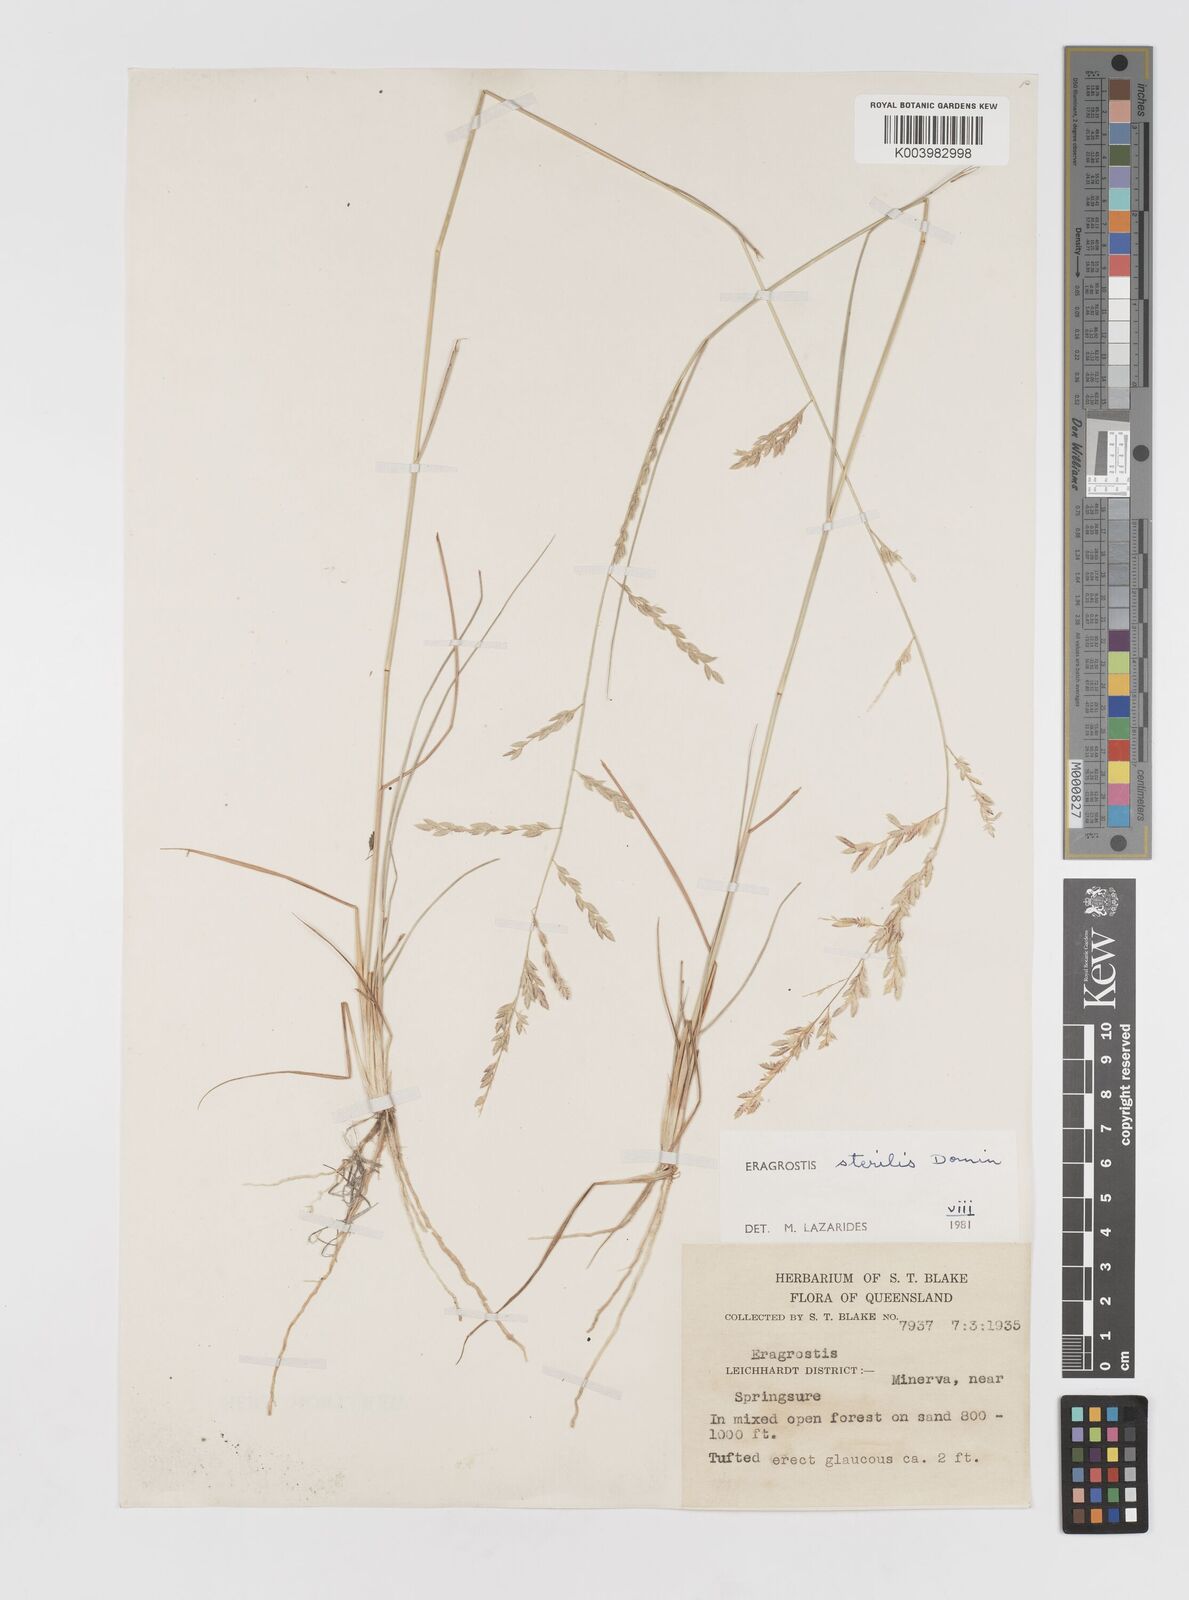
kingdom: Plantae
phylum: Tracheophyta
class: Liliopsida
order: Poales
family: Poaceae
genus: Eragrostis
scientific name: Eragrostis sterilis
